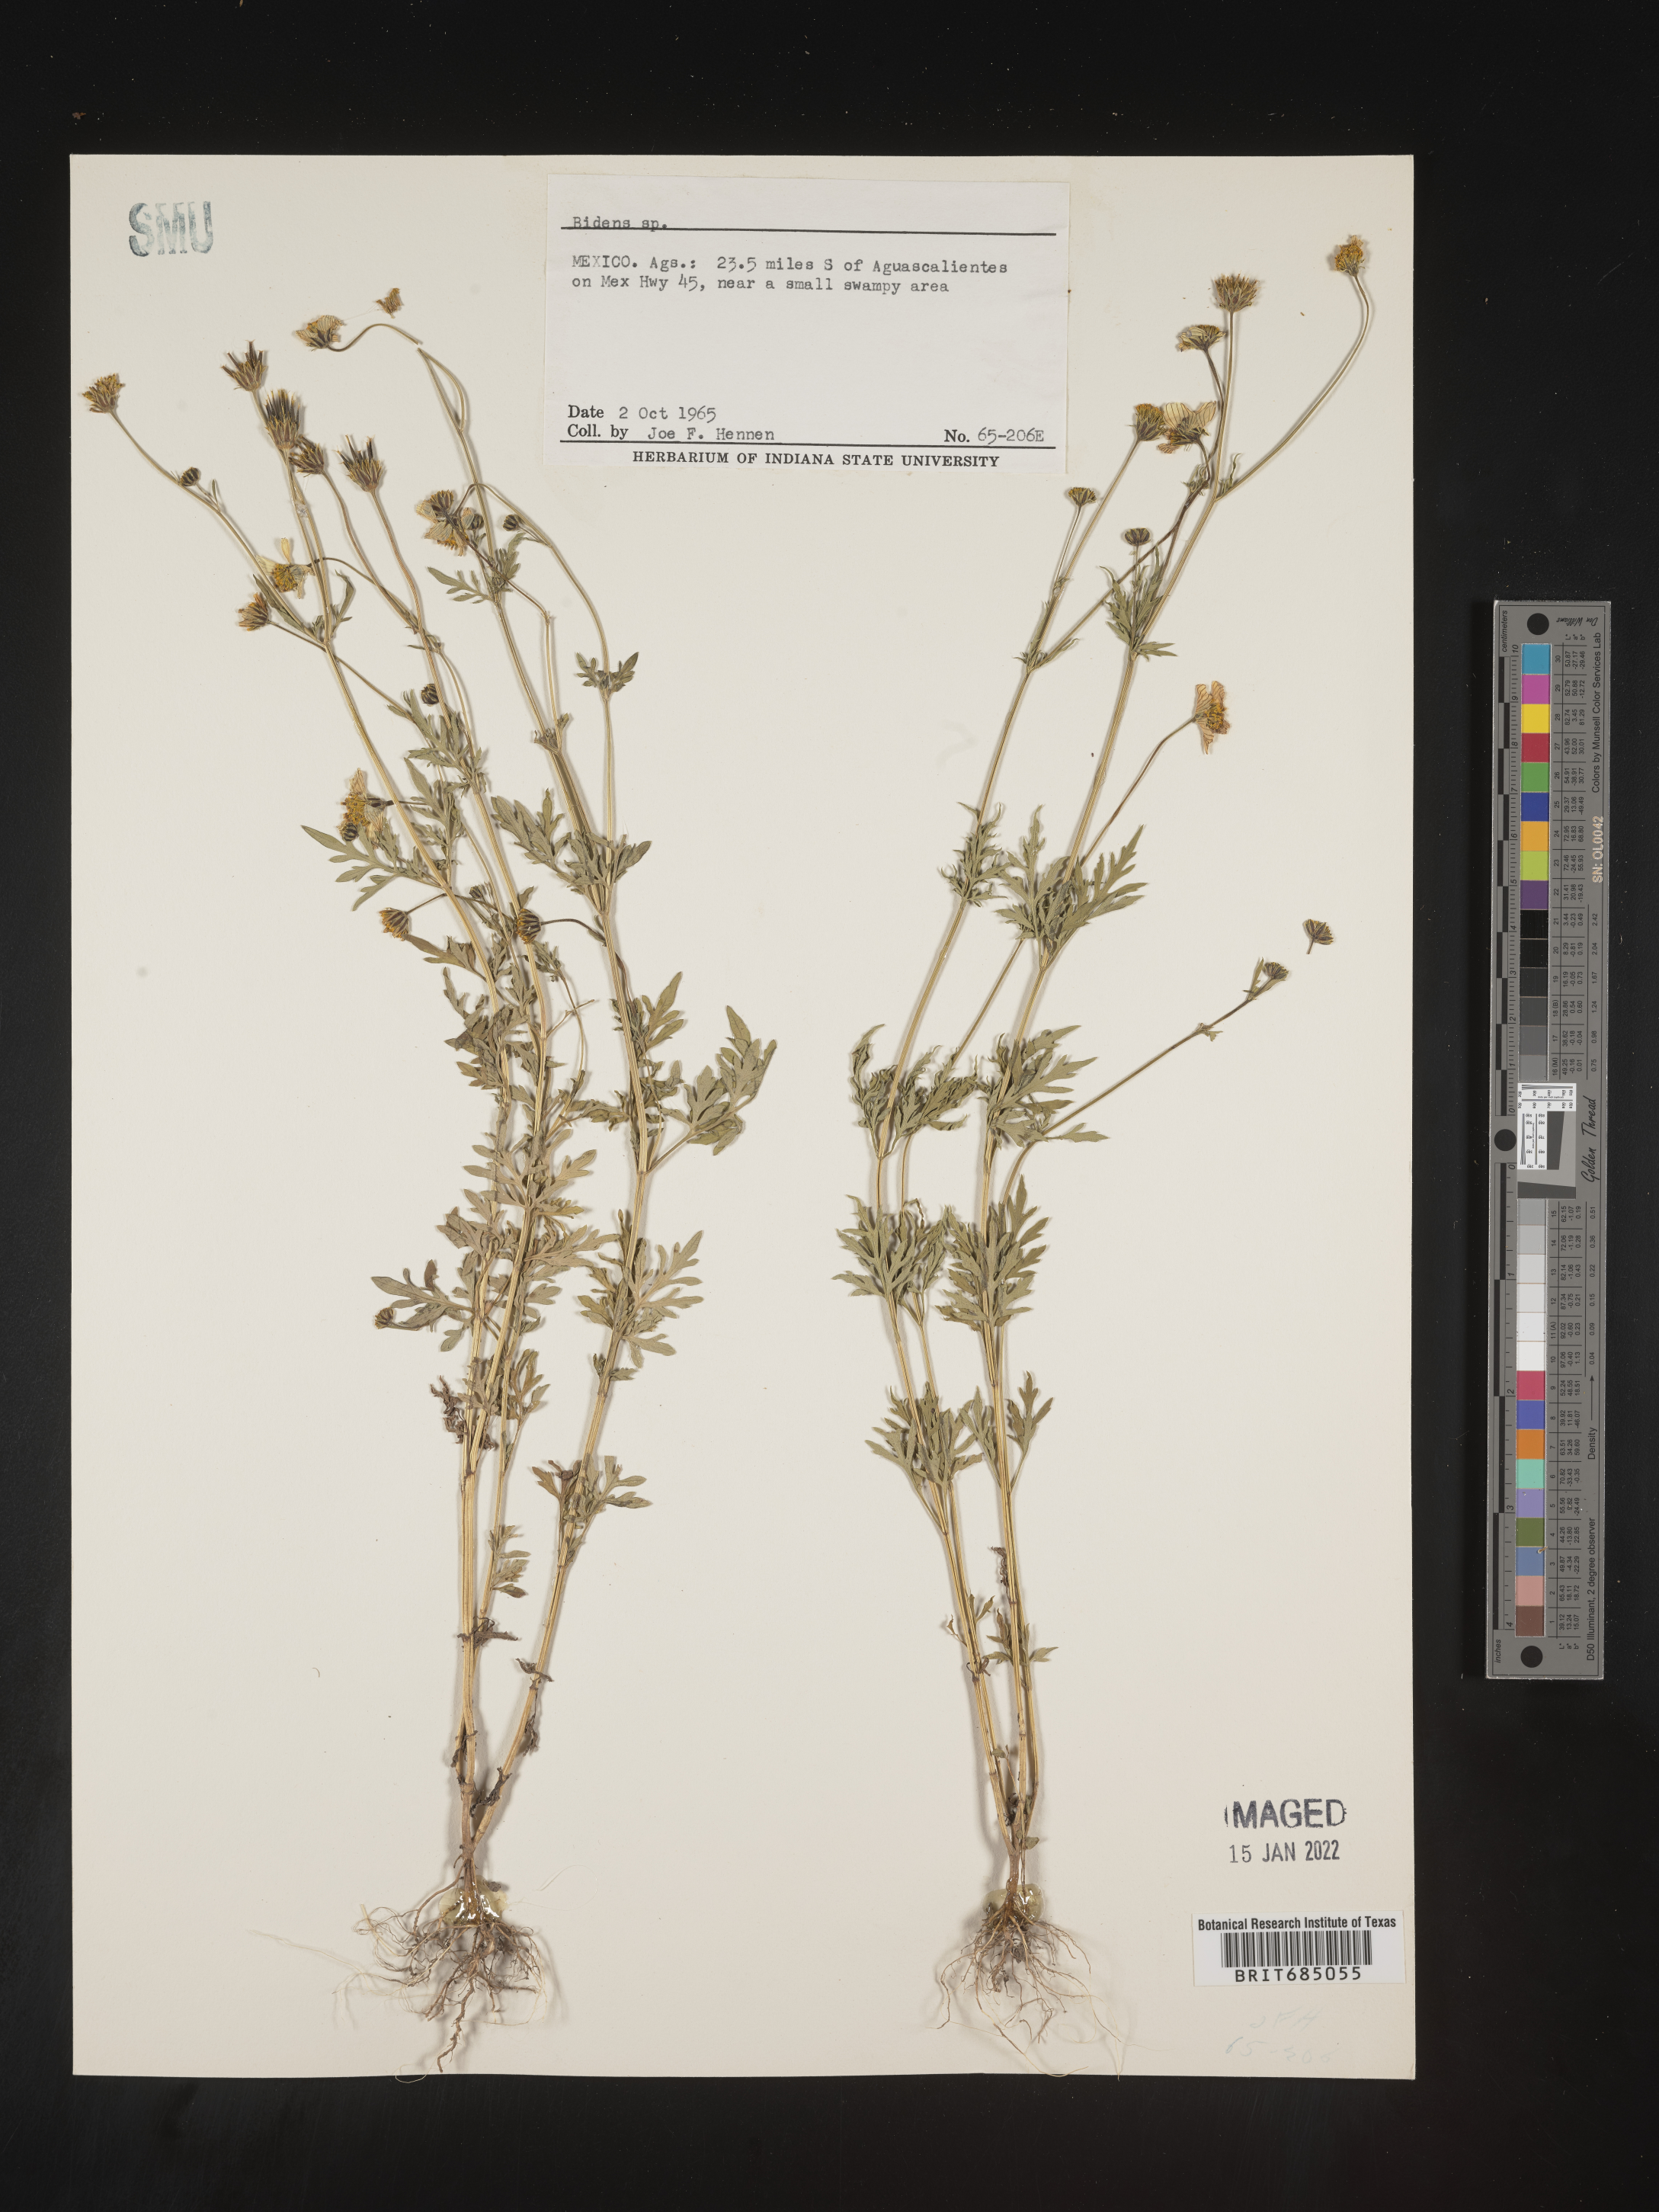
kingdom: Plantae
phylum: Tracheophyta
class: Magnoliopsida
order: Asterales
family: Asteraceae
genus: Bidens
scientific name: Bidens
